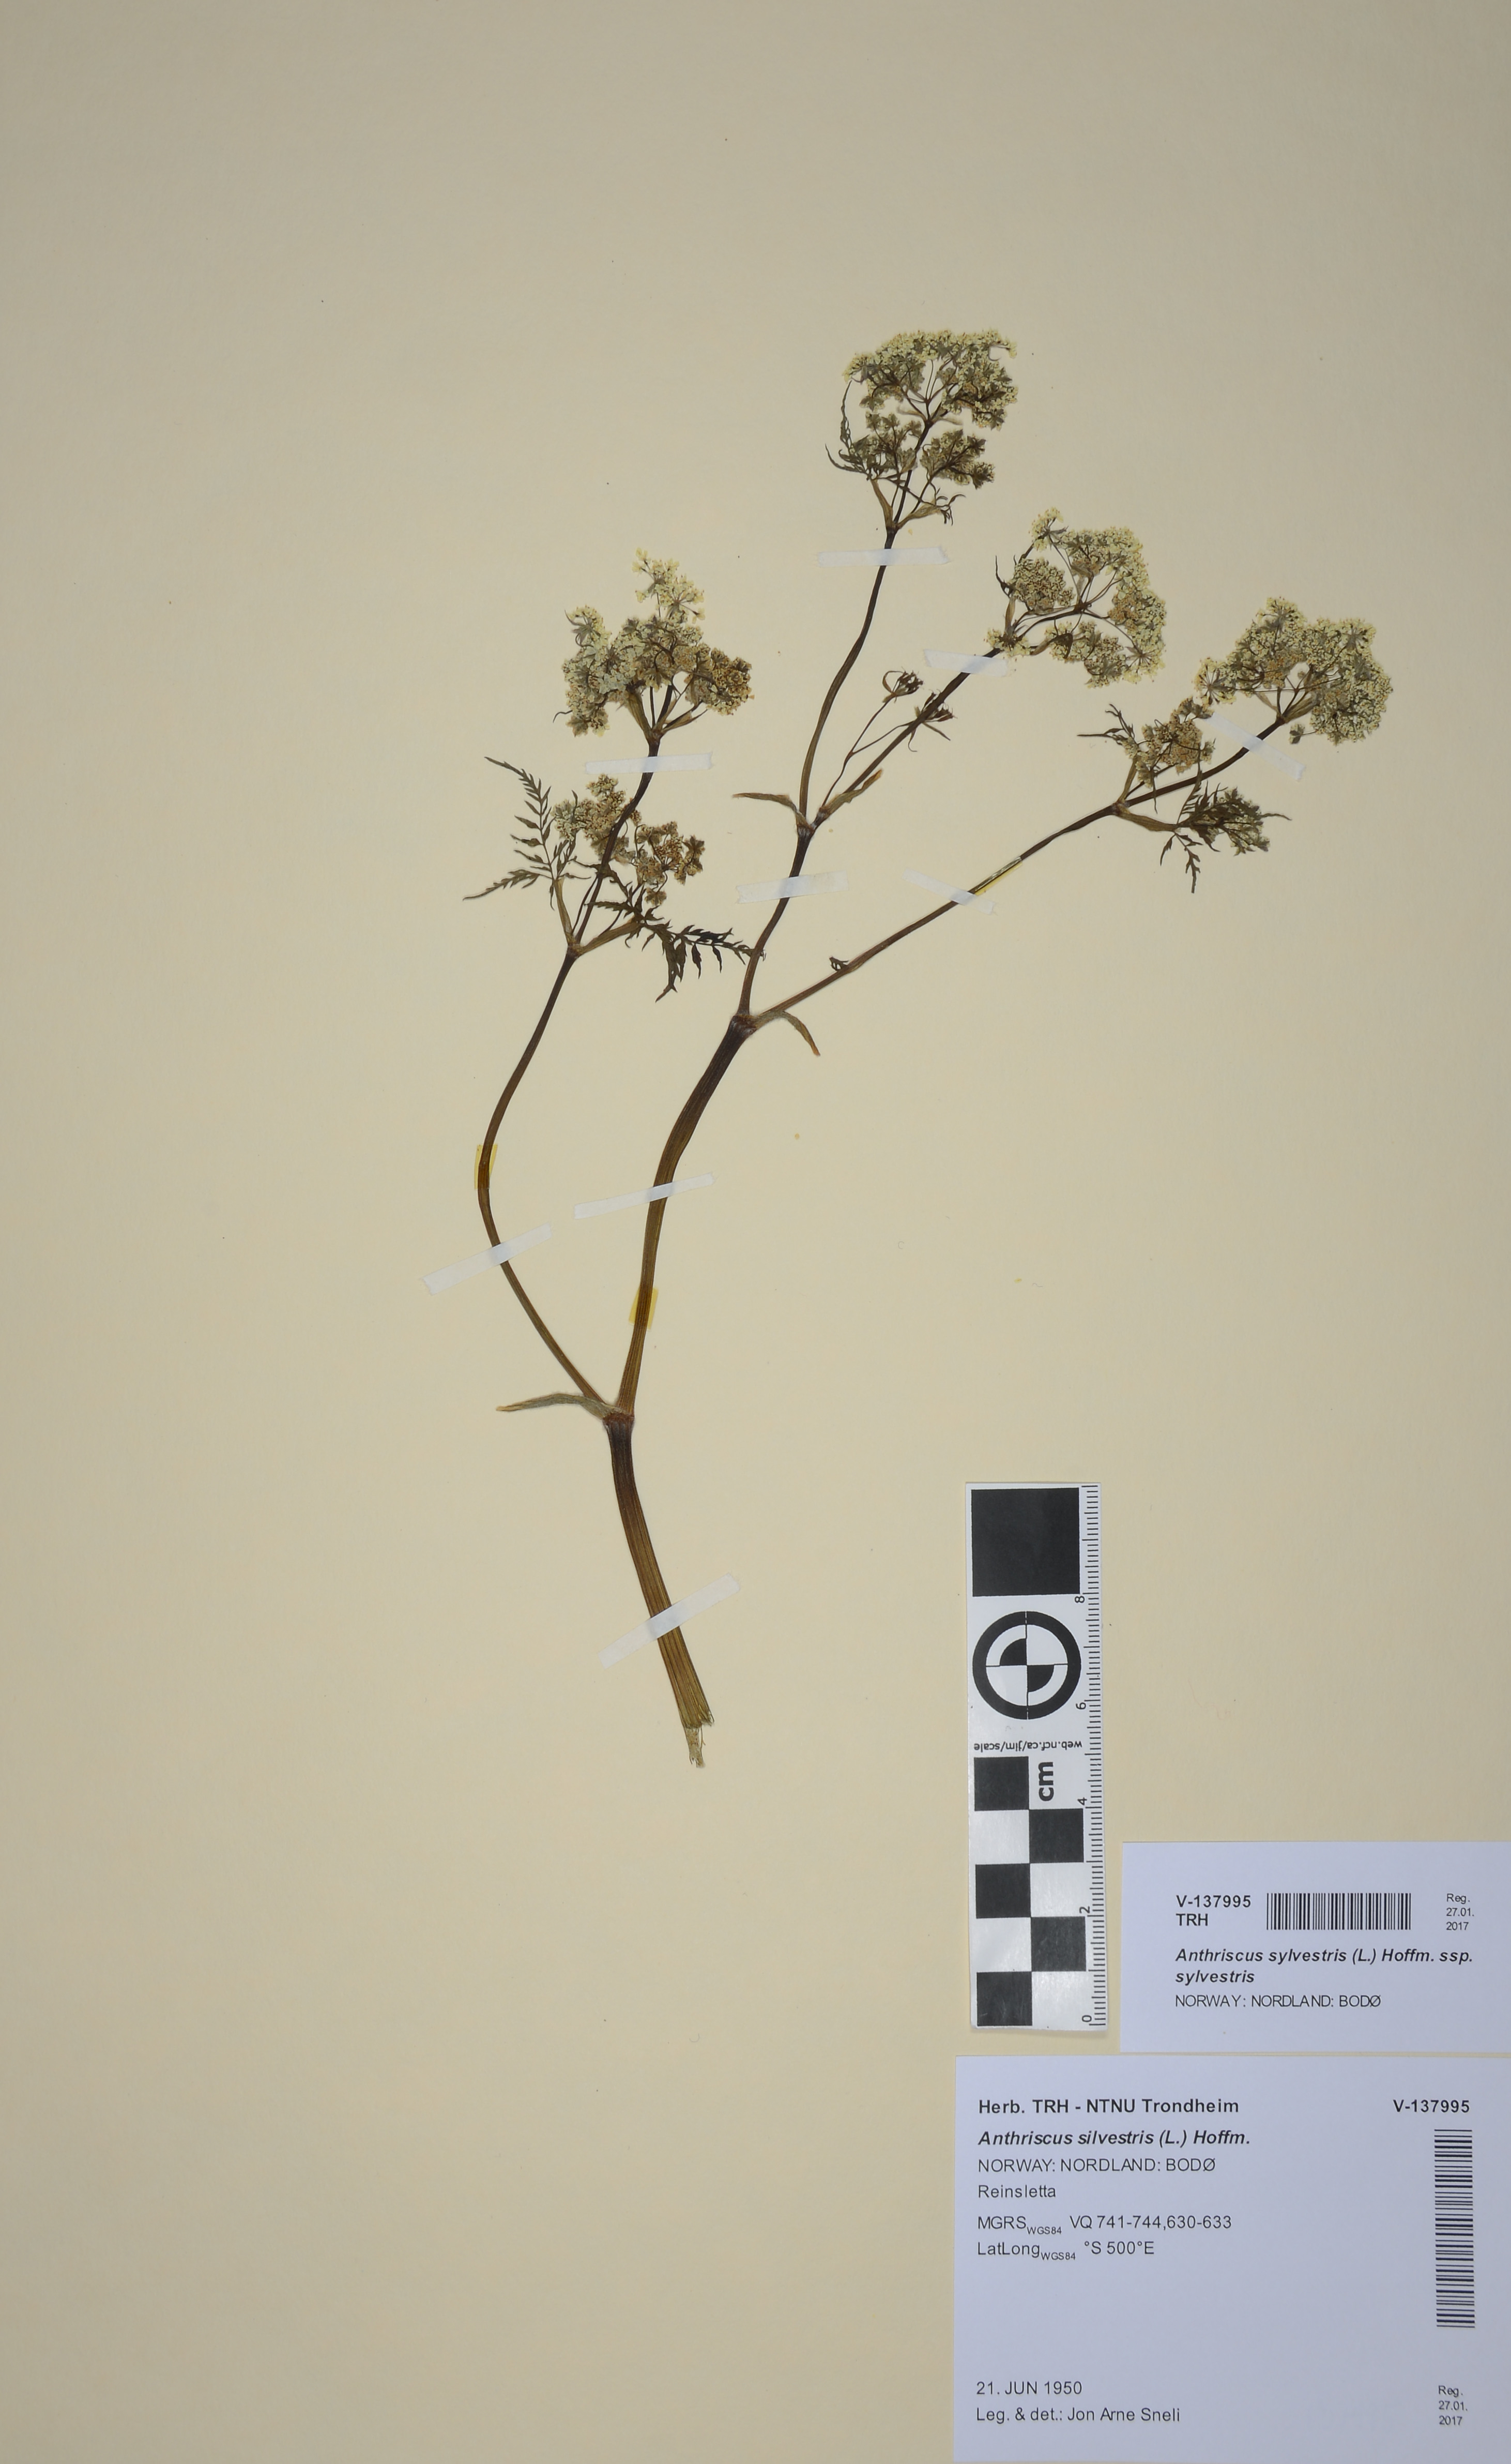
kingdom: Plantae
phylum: Tracheophyta
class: Magnoliopsida
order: Apiales
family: Apiaceae
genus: Anthriscus
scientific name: Anthriscus sylvestris
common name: Cow parsley
